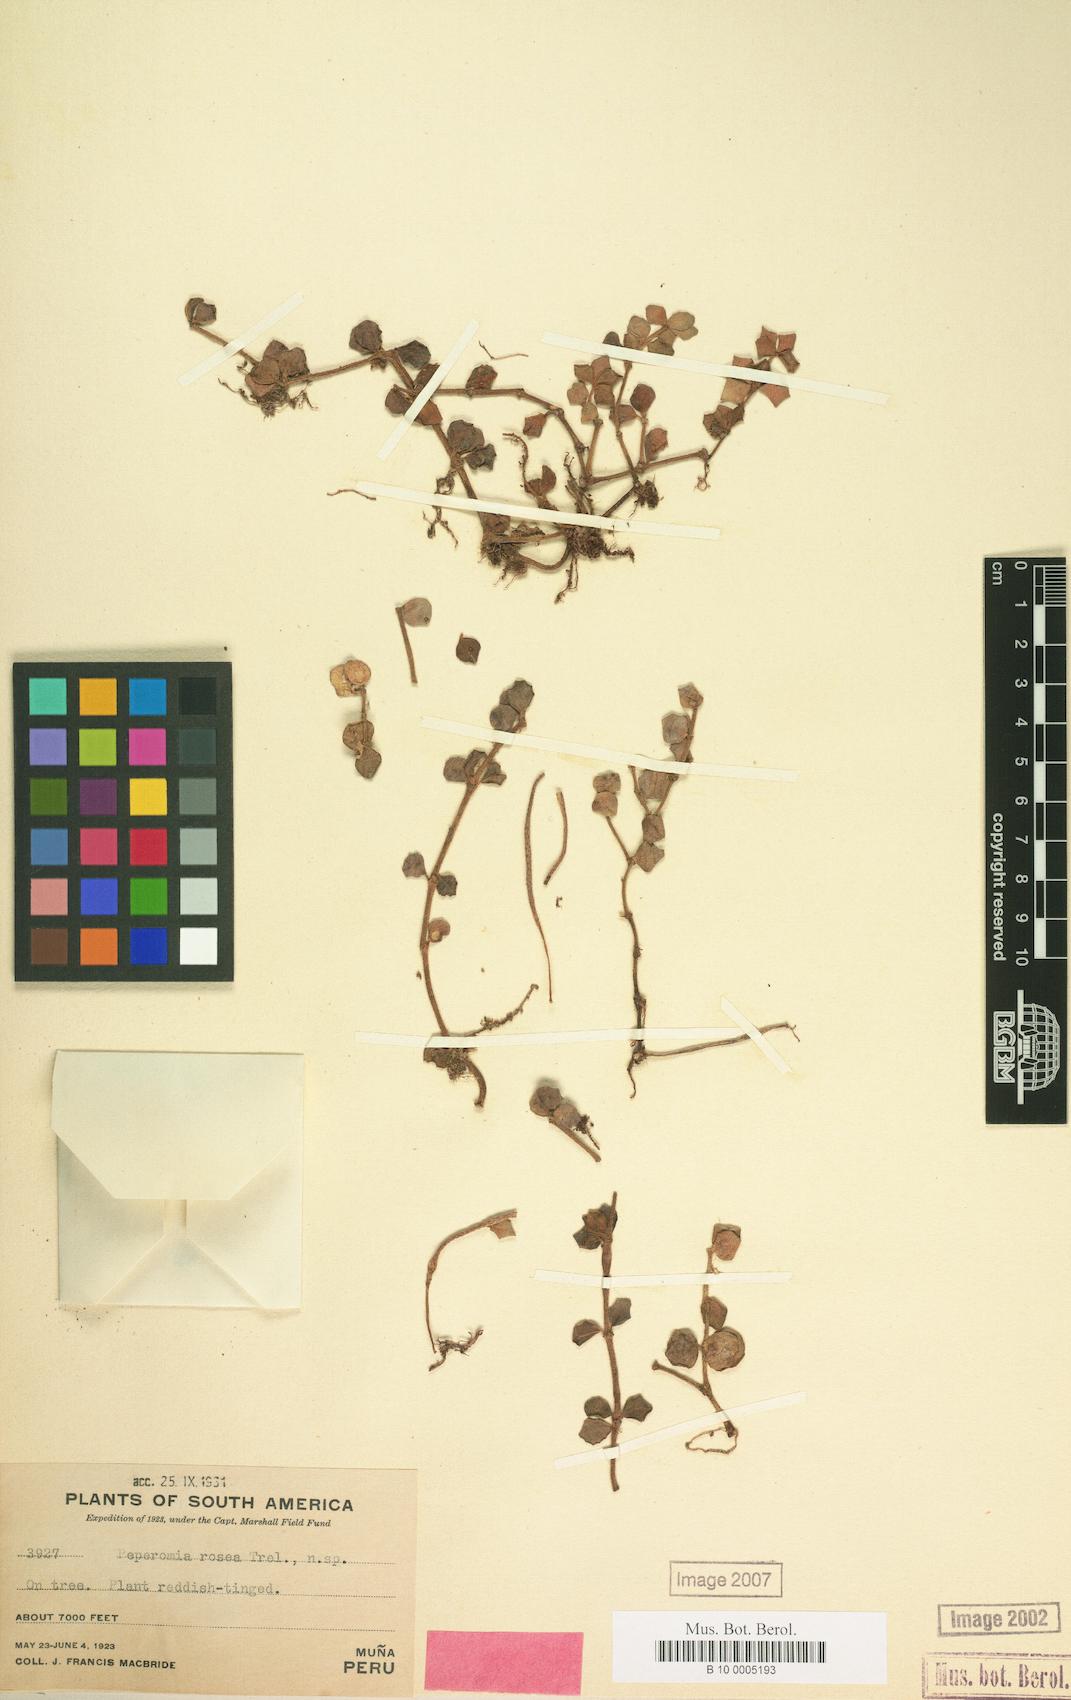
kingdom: Plantae
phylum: Tracheophyta
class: Magnoliopsida
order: Piperales
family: Piperaceae
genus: Peperomia
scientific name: Peperomia rosea
